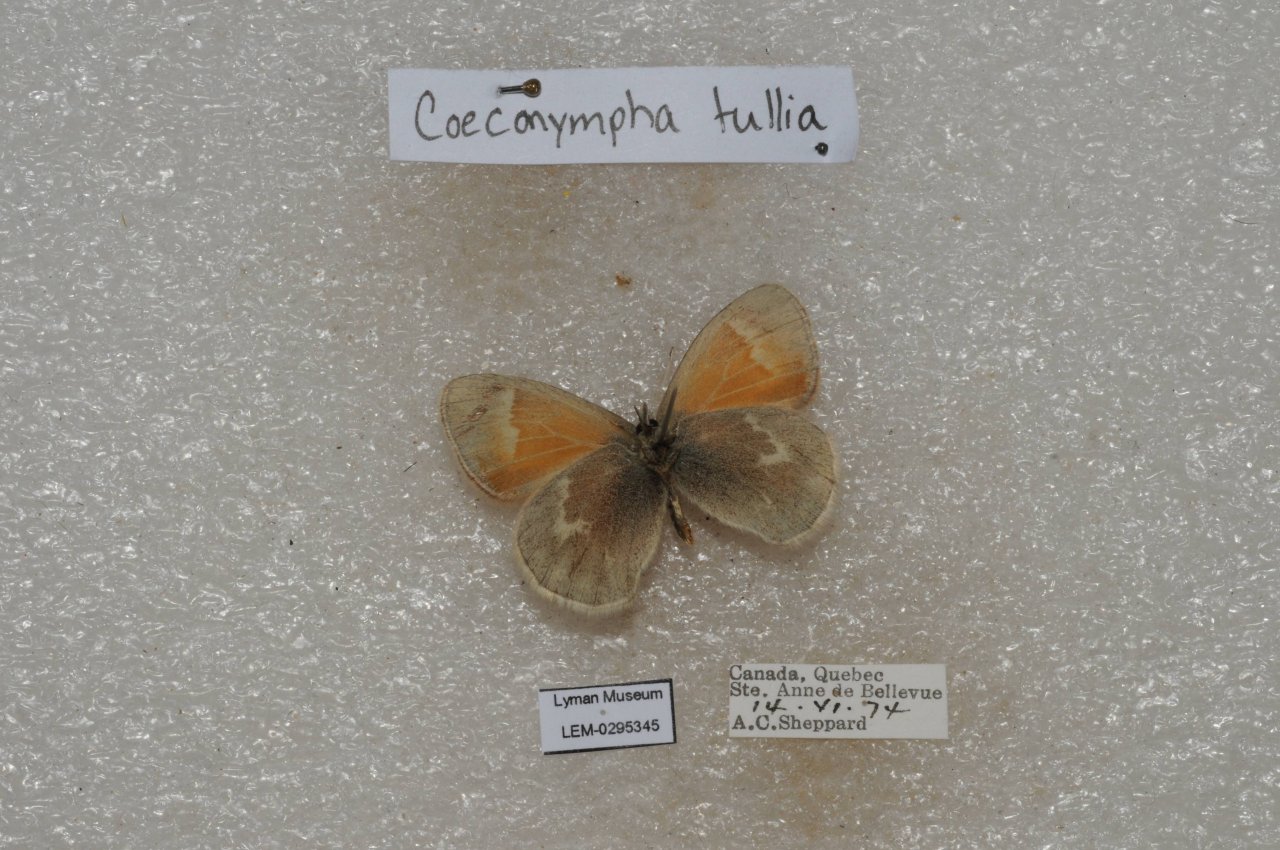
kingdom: Animalia
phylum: Arthropoda
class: Insecta
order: Lepidoptera
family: Nymphalidae
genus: Coenonympha
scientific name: Coenonympha tullia
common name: Large Heath
